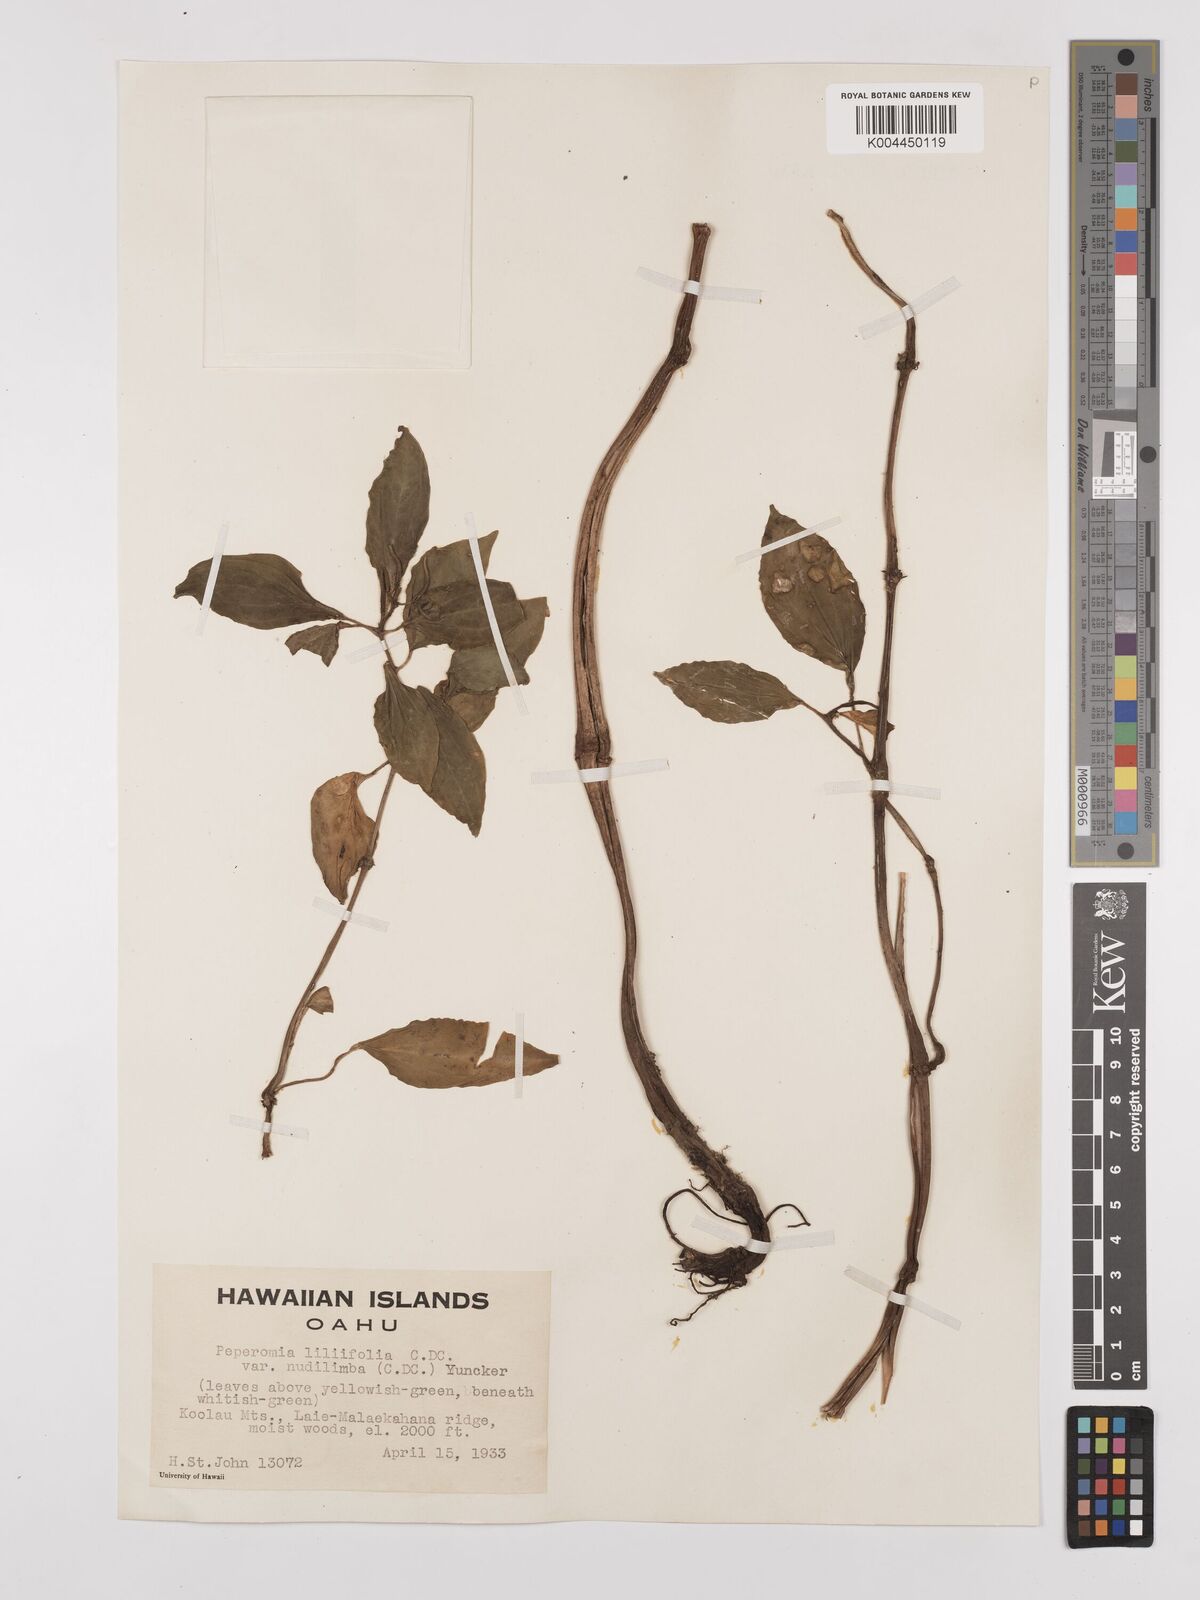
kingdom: Plantae
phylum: Tracheophyta
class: Magnoliopsida
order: Piperales
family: Piperaceae
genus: Peperomia
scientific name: Peperomia macraeana
